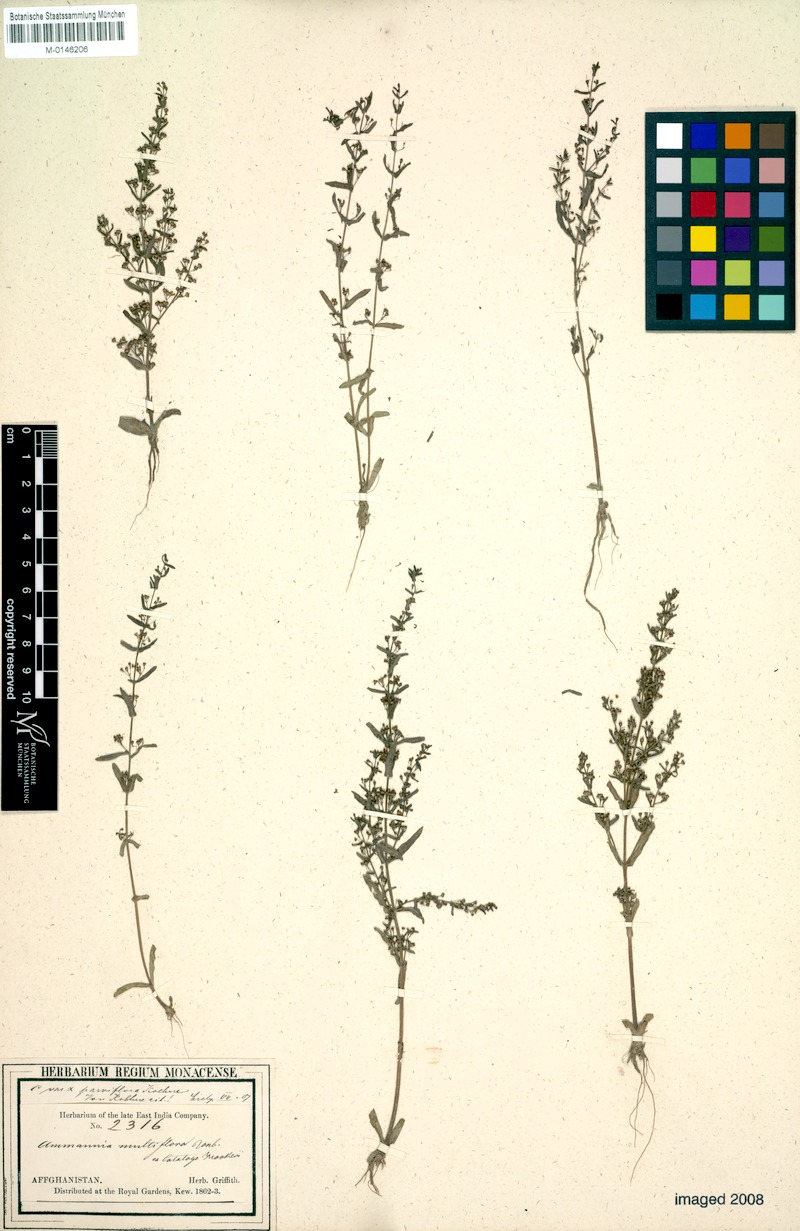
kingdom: Plantae
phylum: Tracheophyta
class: Magnoliopsida
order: Myrtales
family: Lythraceae
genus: Ammannia
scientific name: Ammannia auriculata
